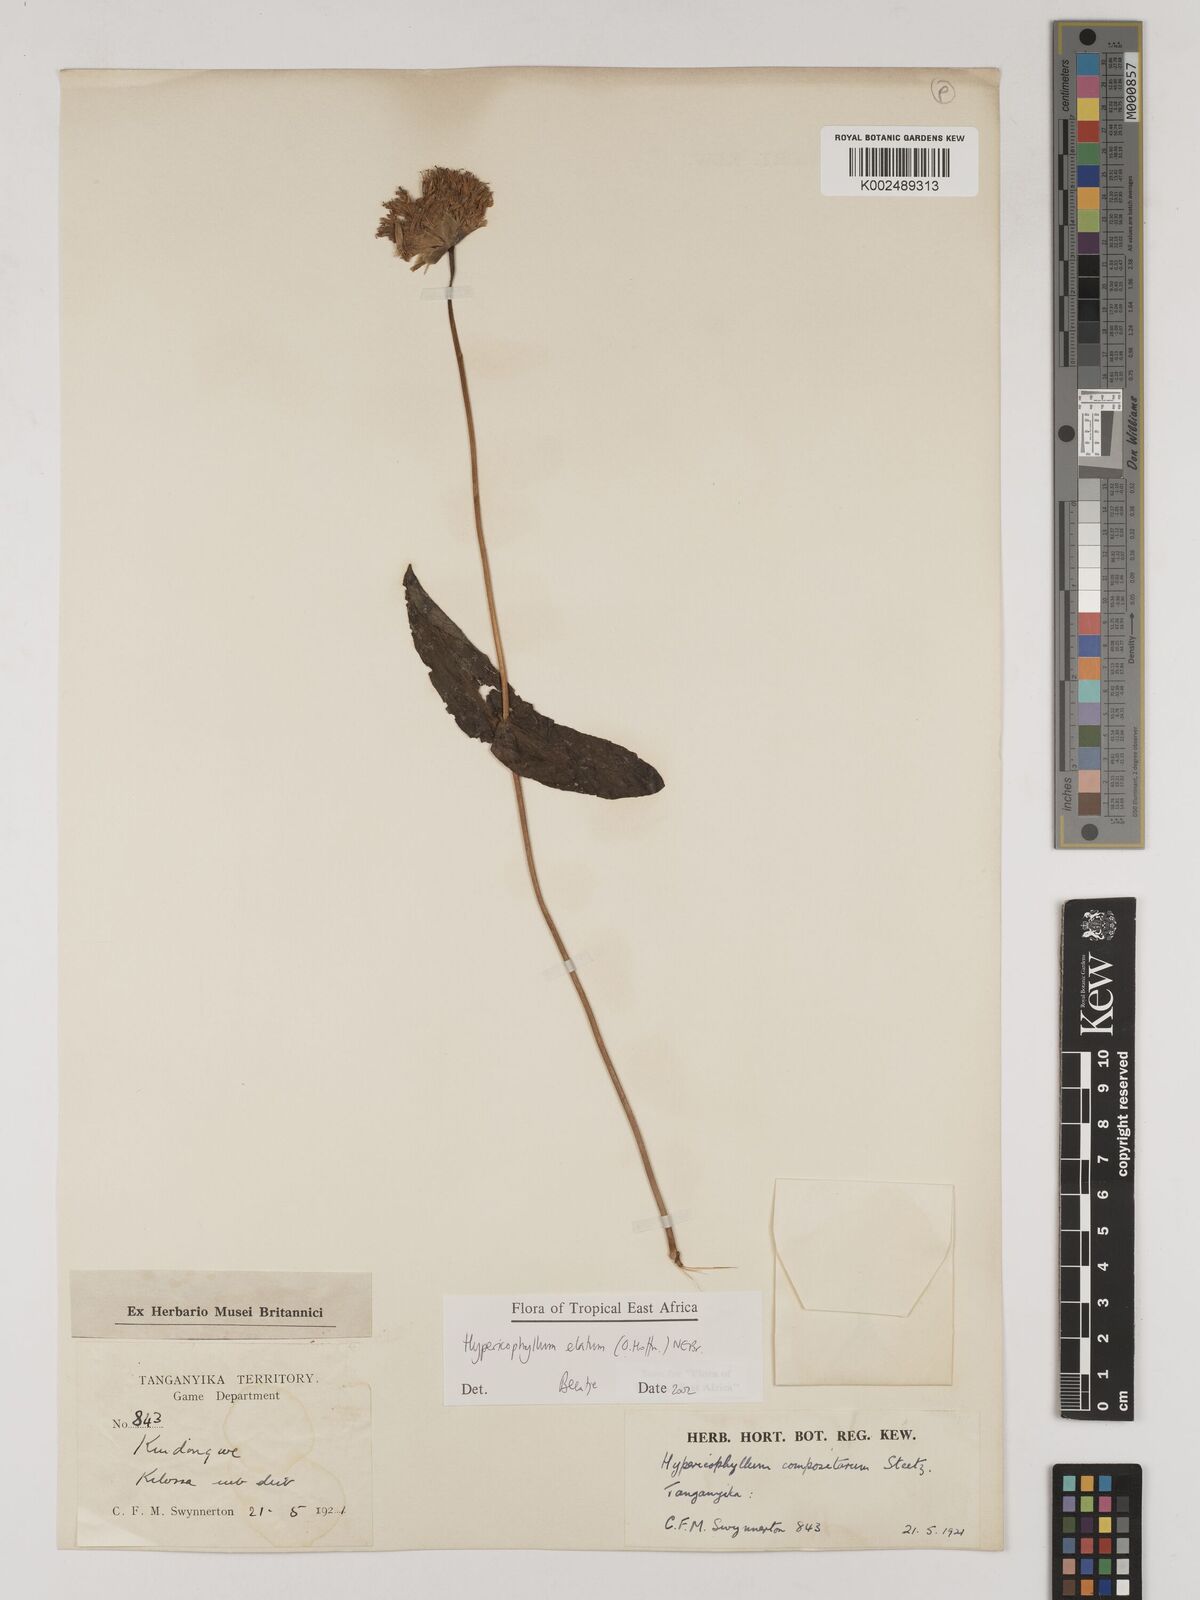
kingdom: Plantae
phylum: Tracheophyta
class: Magnoliopsida
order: Asterales
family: Asteraceae
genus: Hypericophyllum
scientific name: Hypericophyllum elatum
